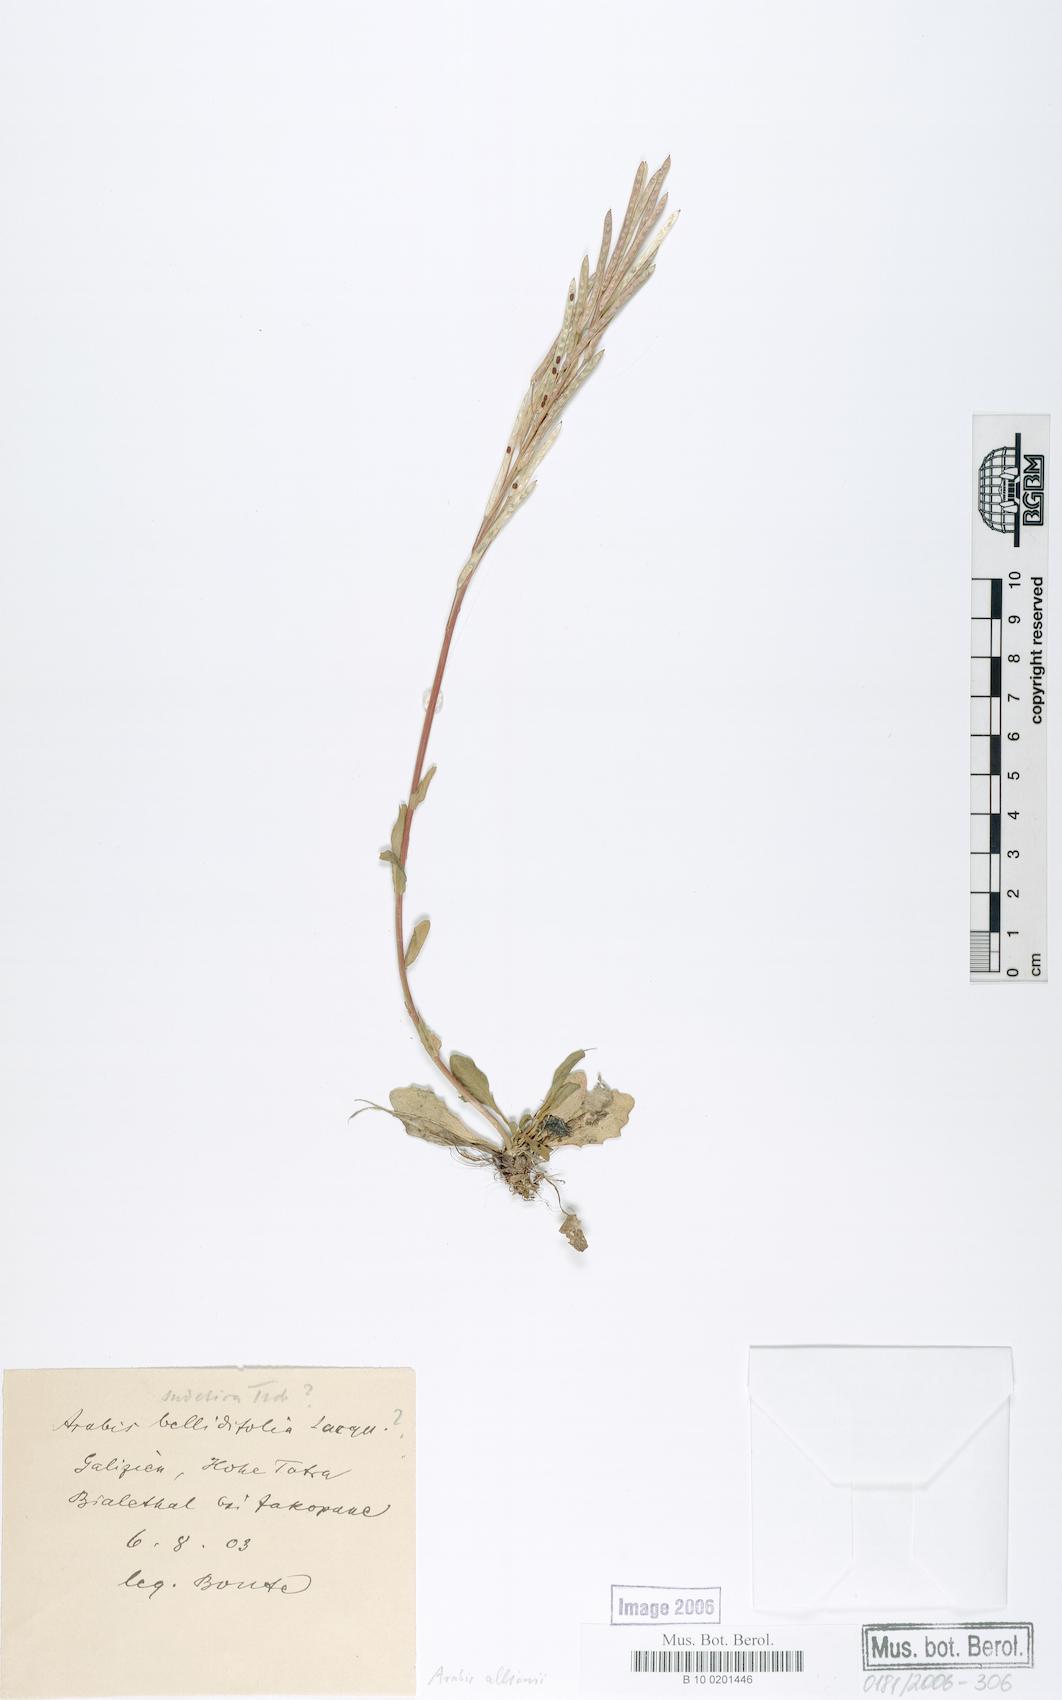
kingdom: Plantae
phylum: Tracheophyta
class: Magnoliopsida
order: Brassicales
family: Brassicaceae
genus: Arabis
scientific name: Arabis allionii
